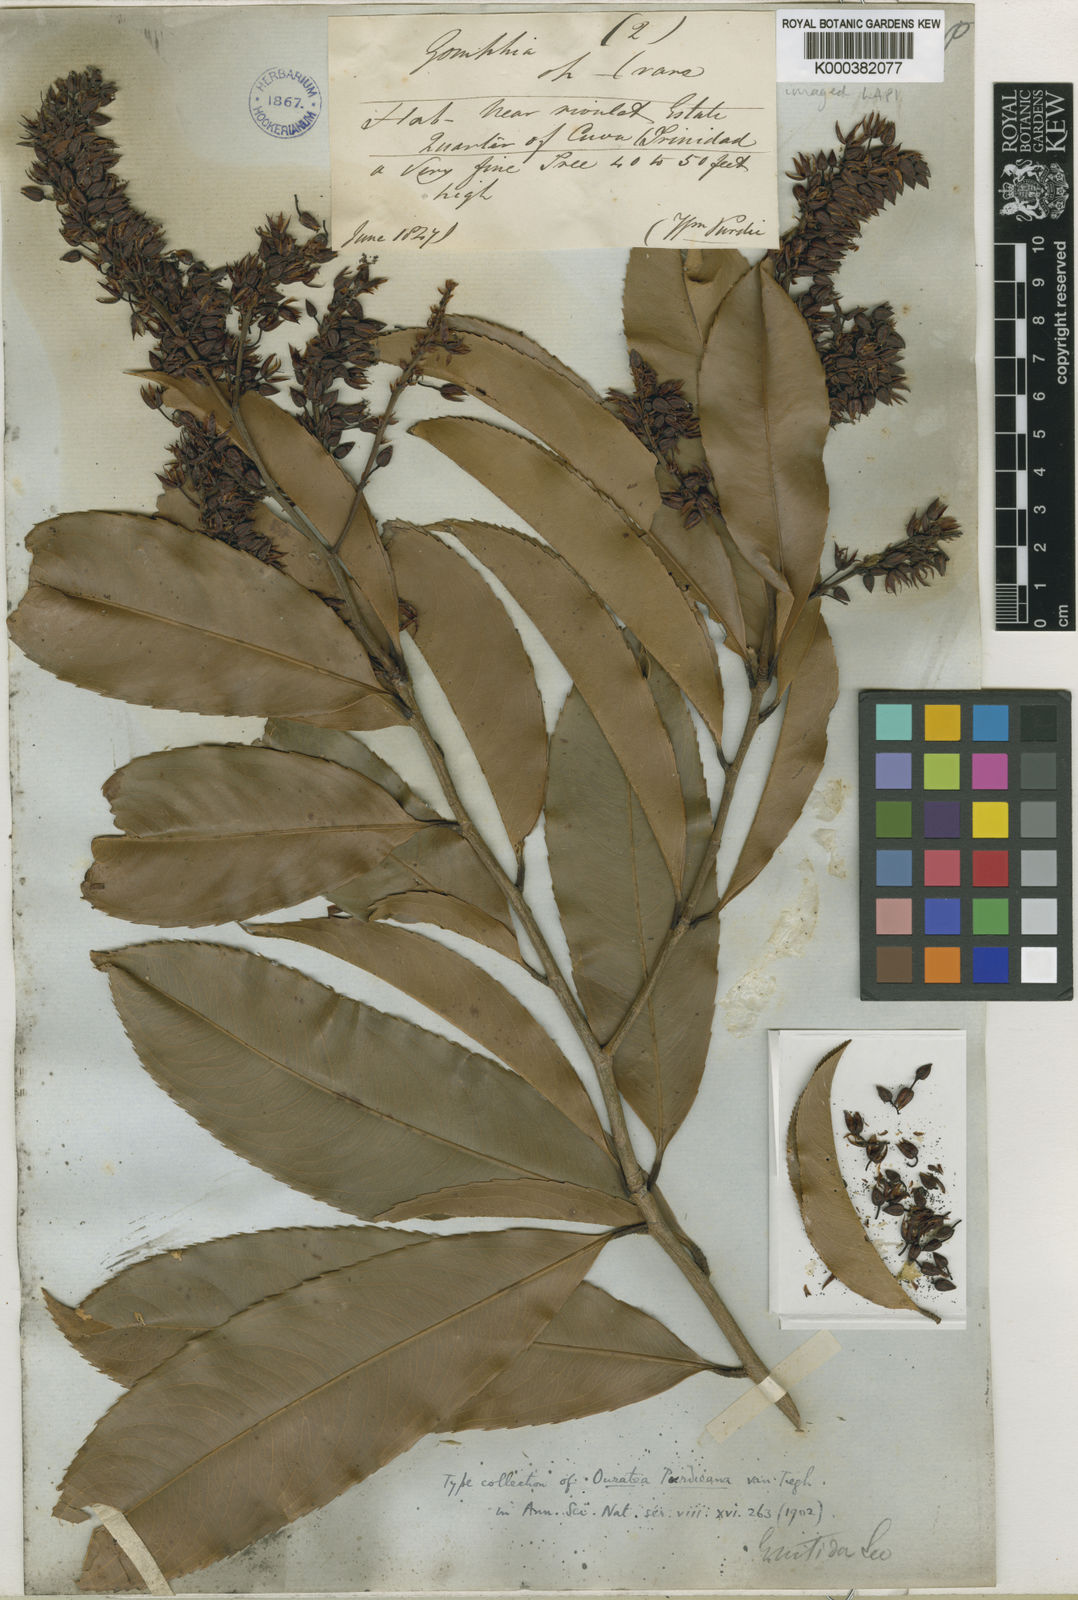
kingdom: Plantae
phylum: Tracheophyta
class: Magnoliopsida
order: Malpighiales
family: Ochnaceae
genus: Ouratea
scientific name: Ouratea purdieana
